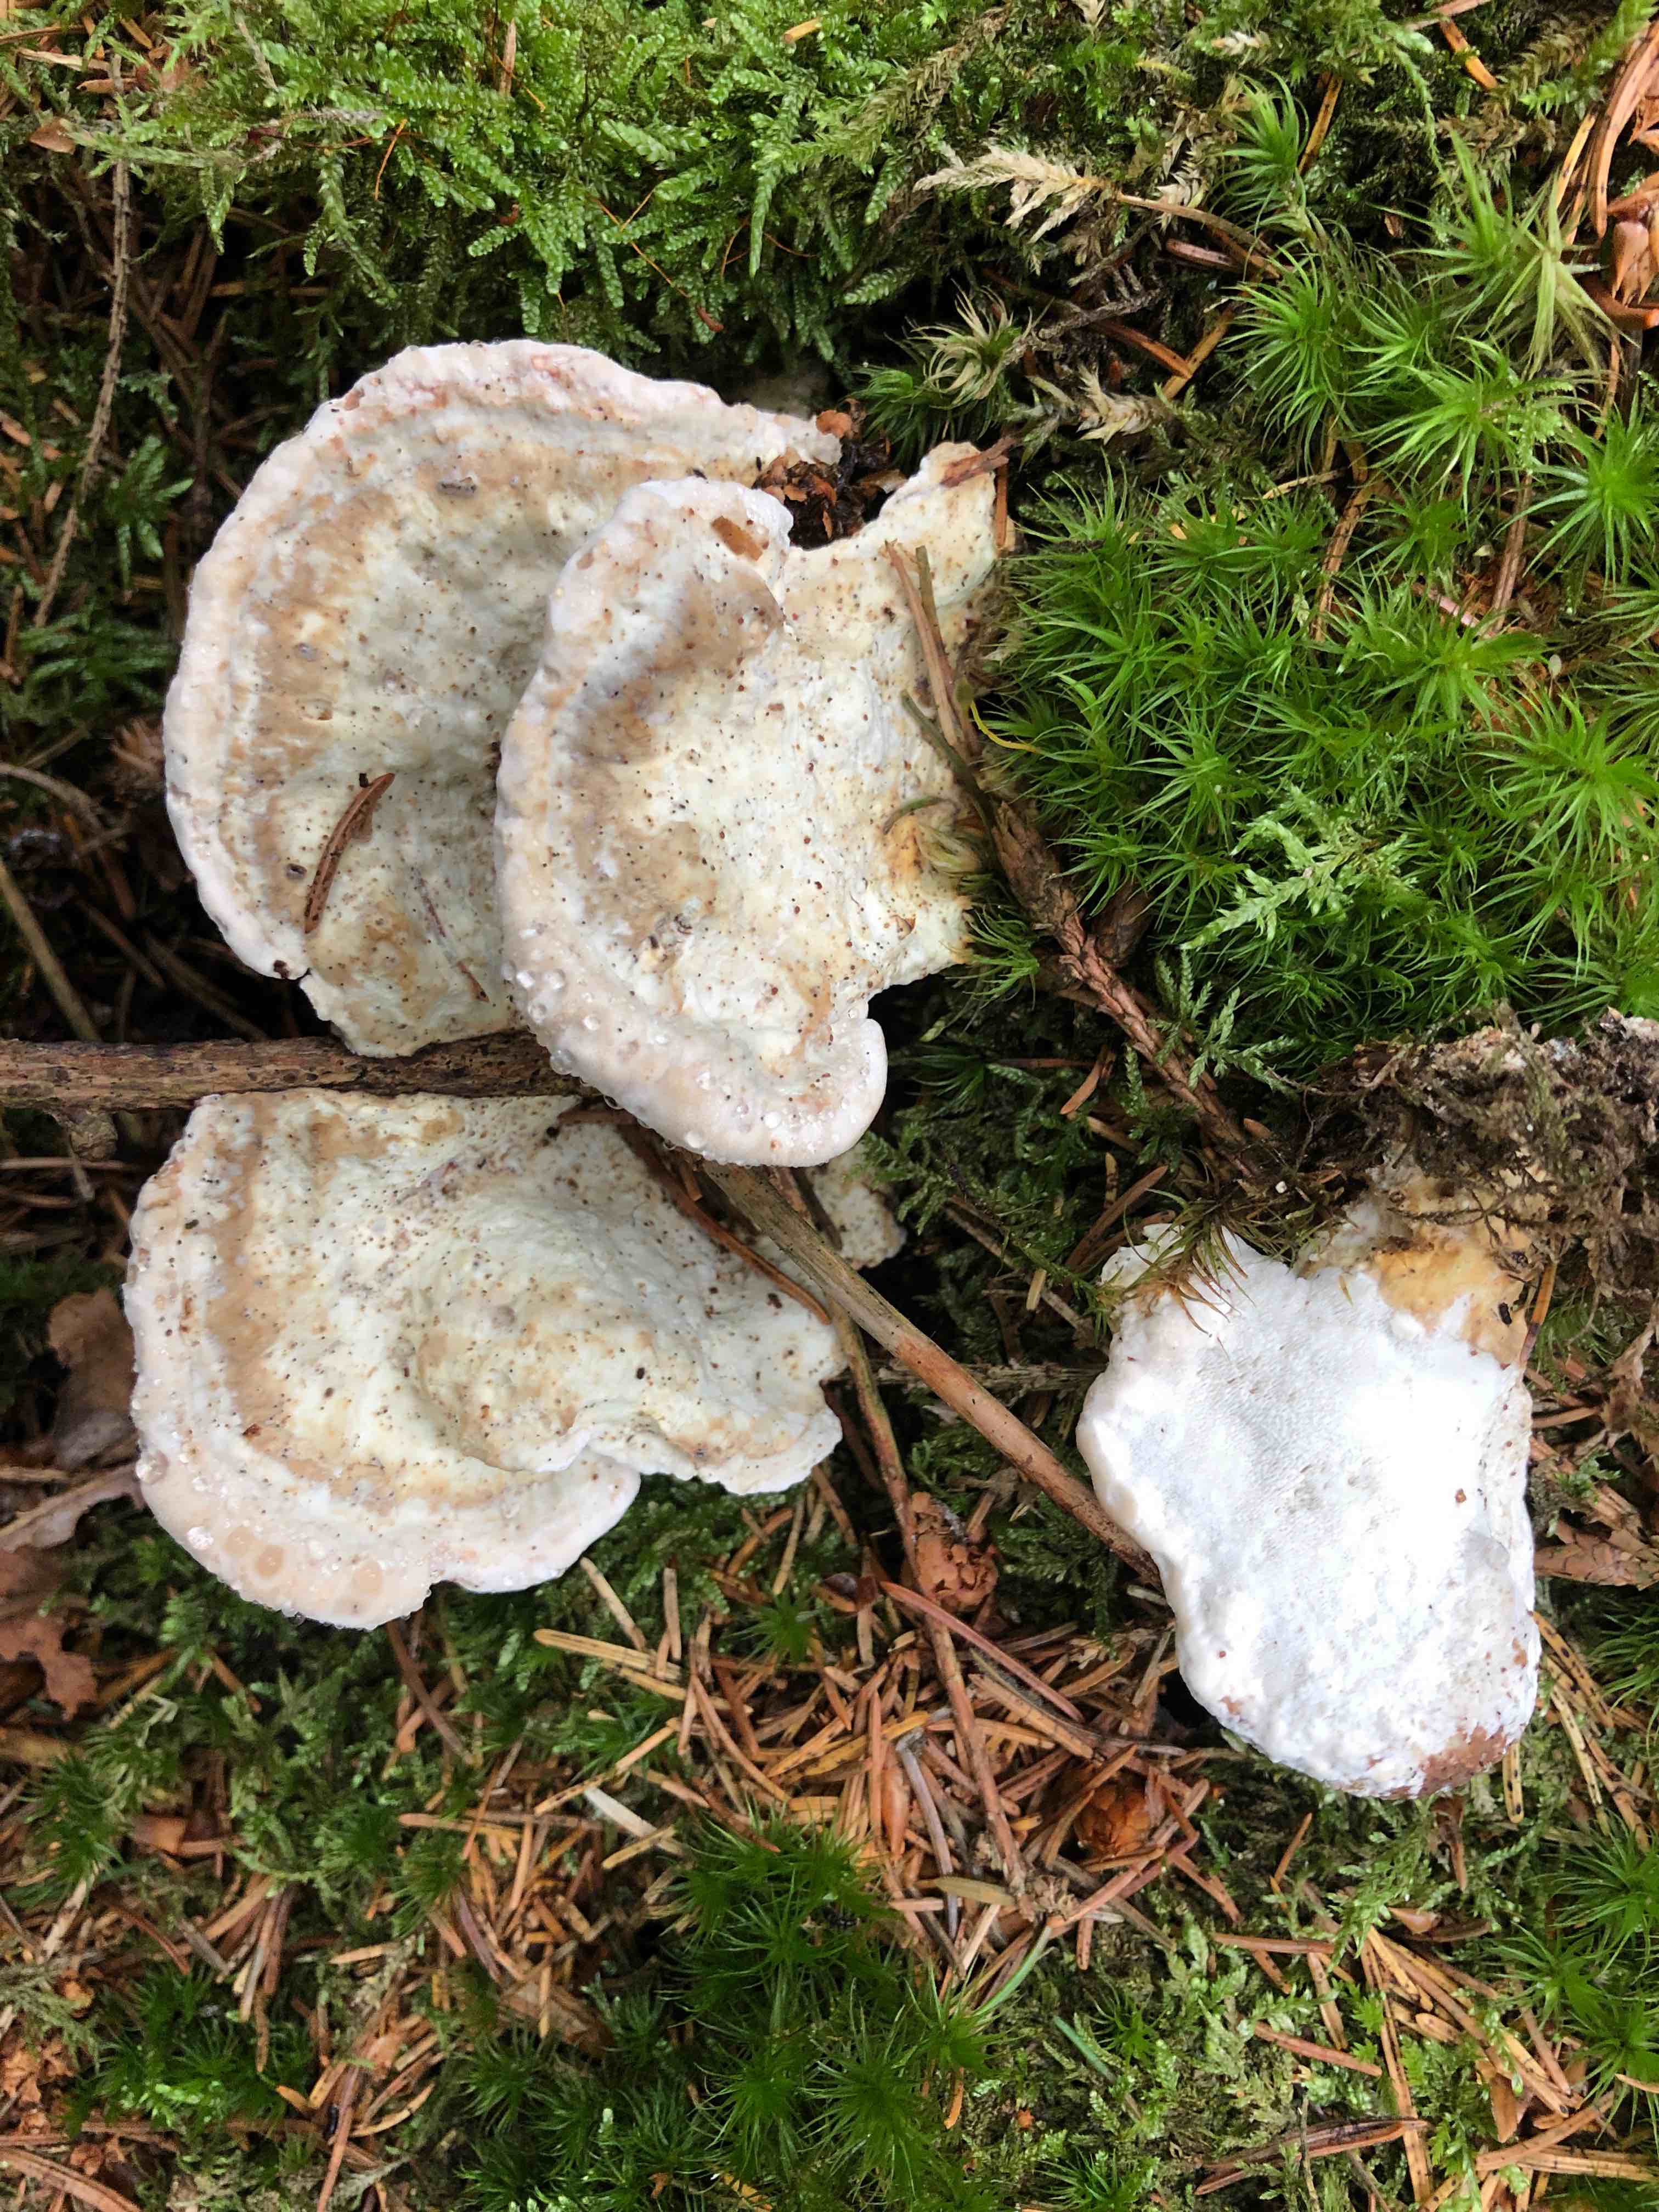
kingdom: Fungi
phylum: Basidiomycota
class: Agaricomycetes
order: Polyporales
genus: Calcipostia
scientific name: Calcipostia guttulata
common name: dråbe-kødporesvamp
